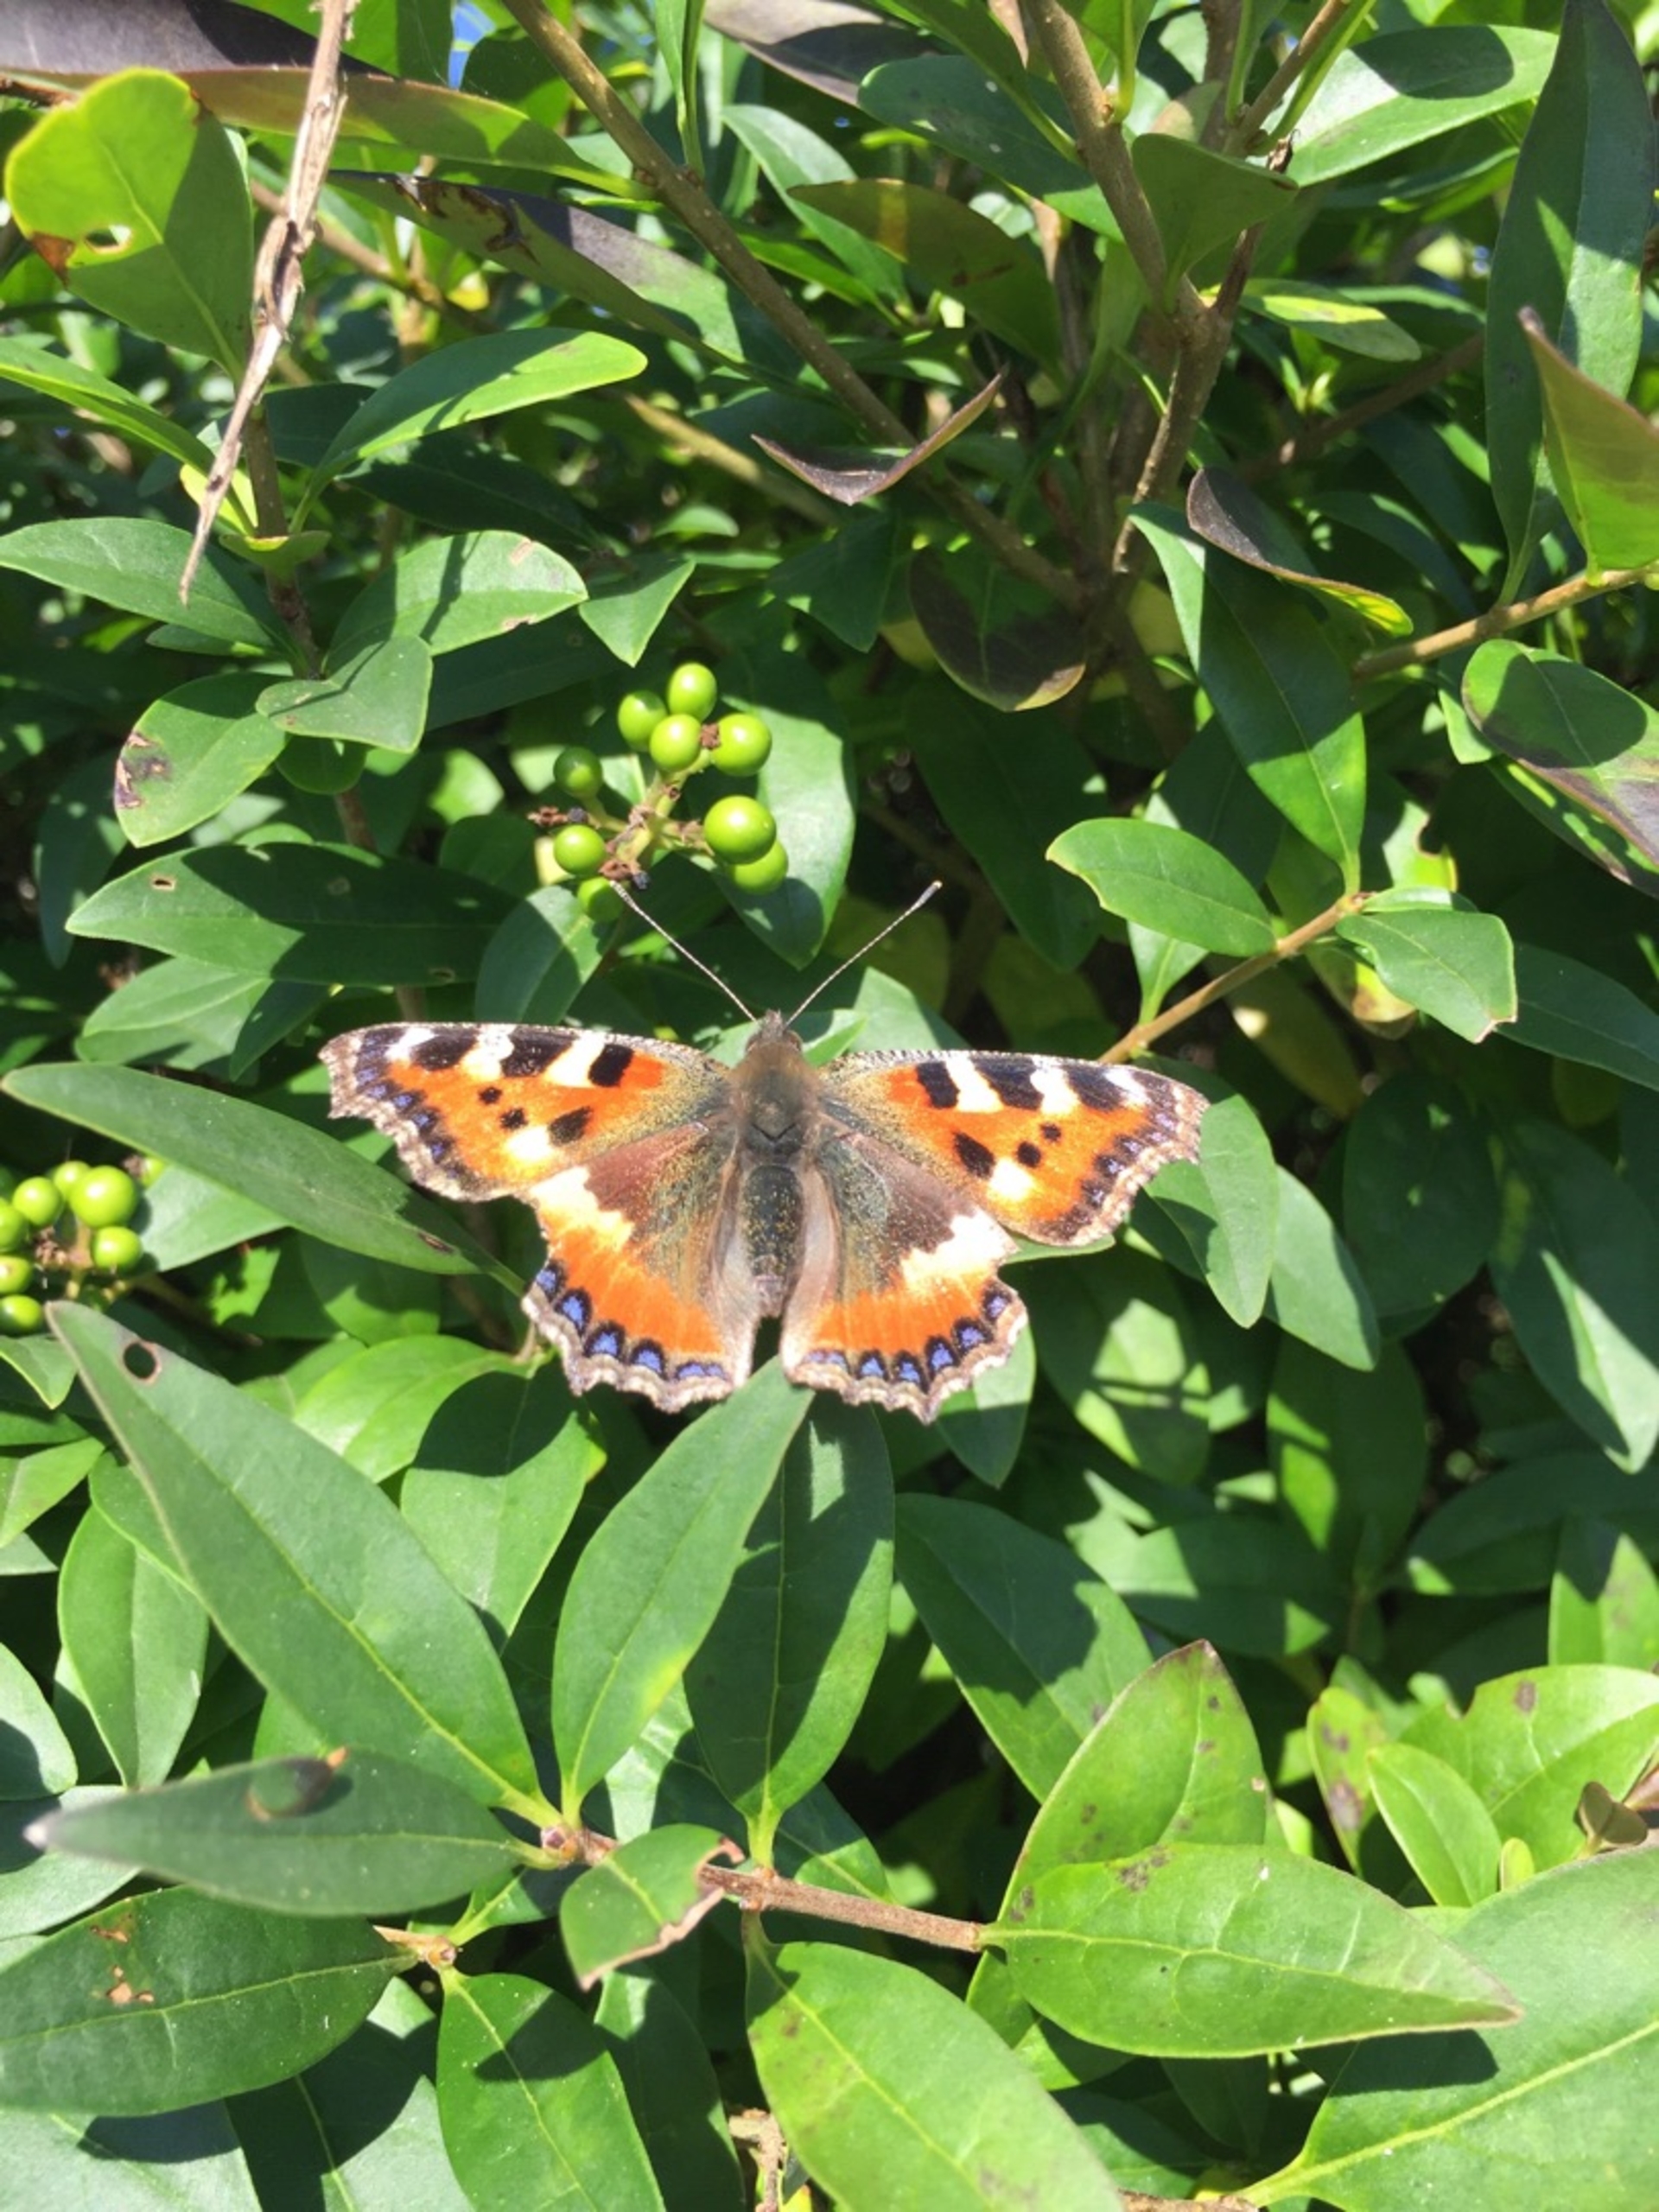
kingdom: Animalia
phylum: Arthropoda
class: Insecta
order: Lepidoptera
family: Nymphalidae
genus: Aglais
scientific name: Aglais urticae
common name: Nældens takvinge
